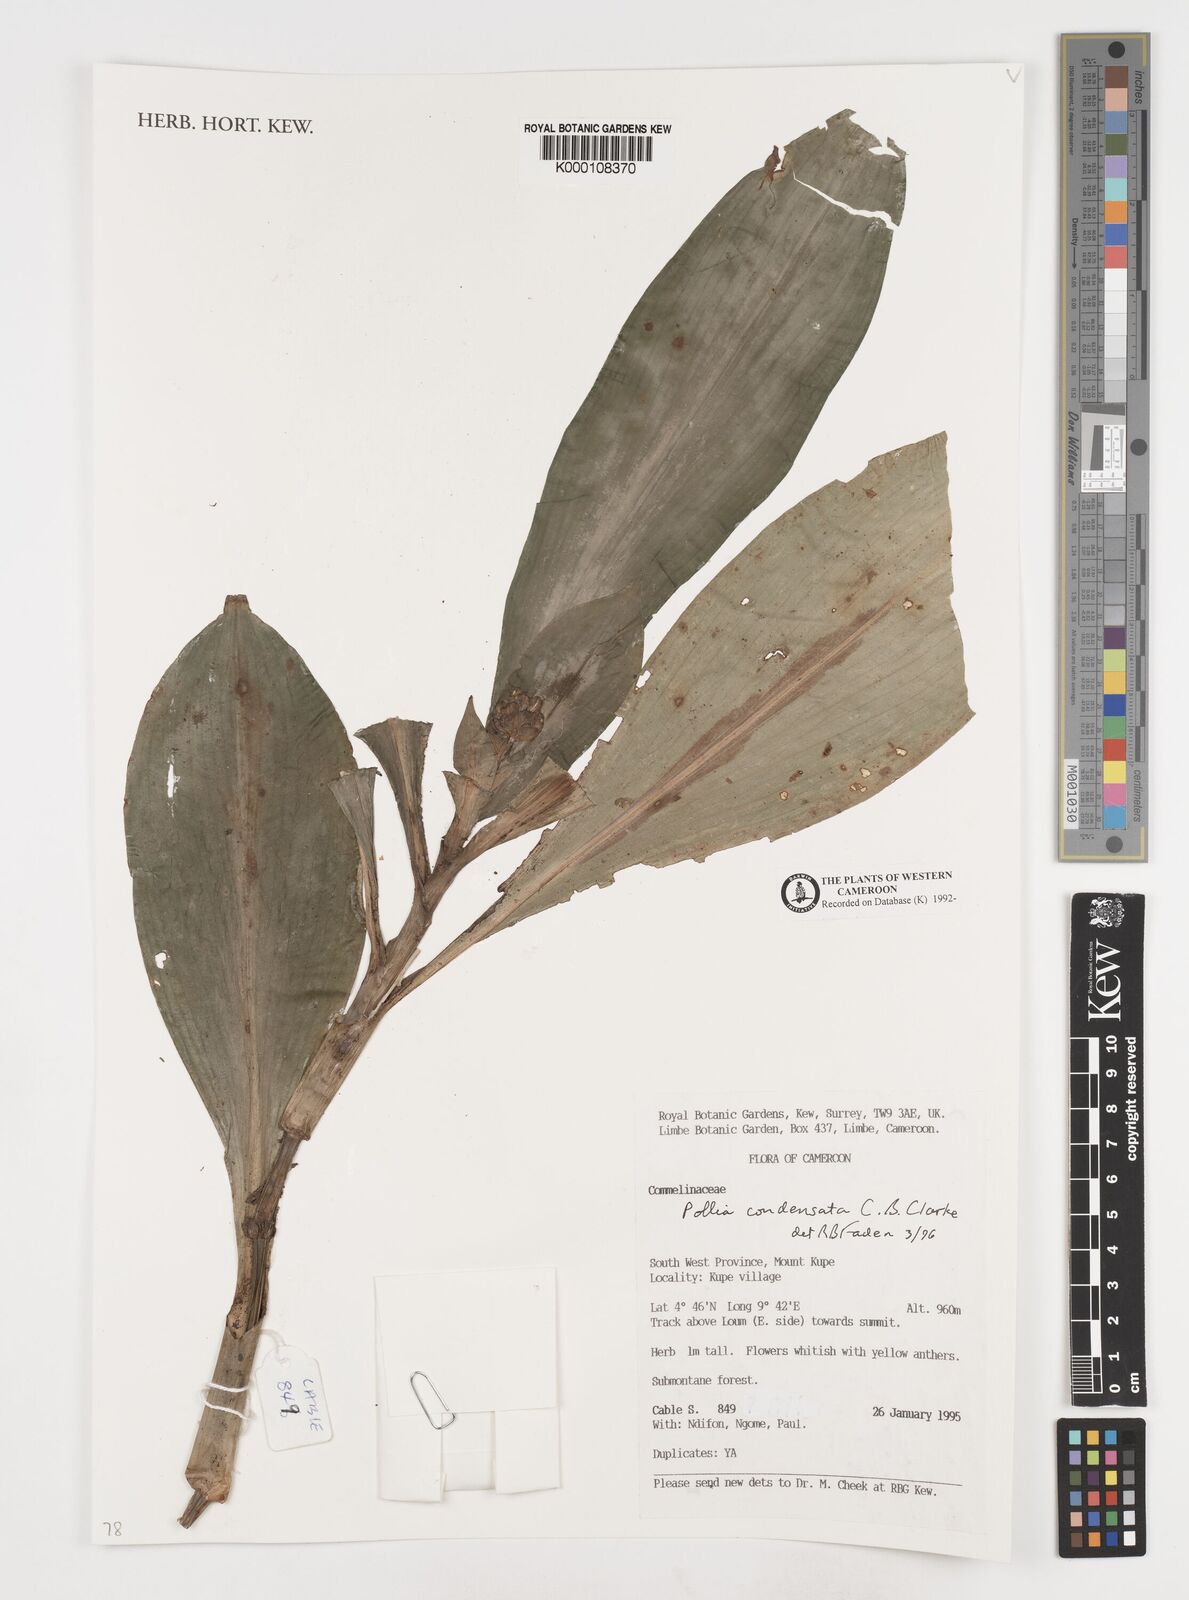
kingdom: Plantae
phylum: Tracheophyta
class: Liliopsida
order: Commelinales
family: Commelinaceae
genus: Pollia
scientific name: Pollia condensata
